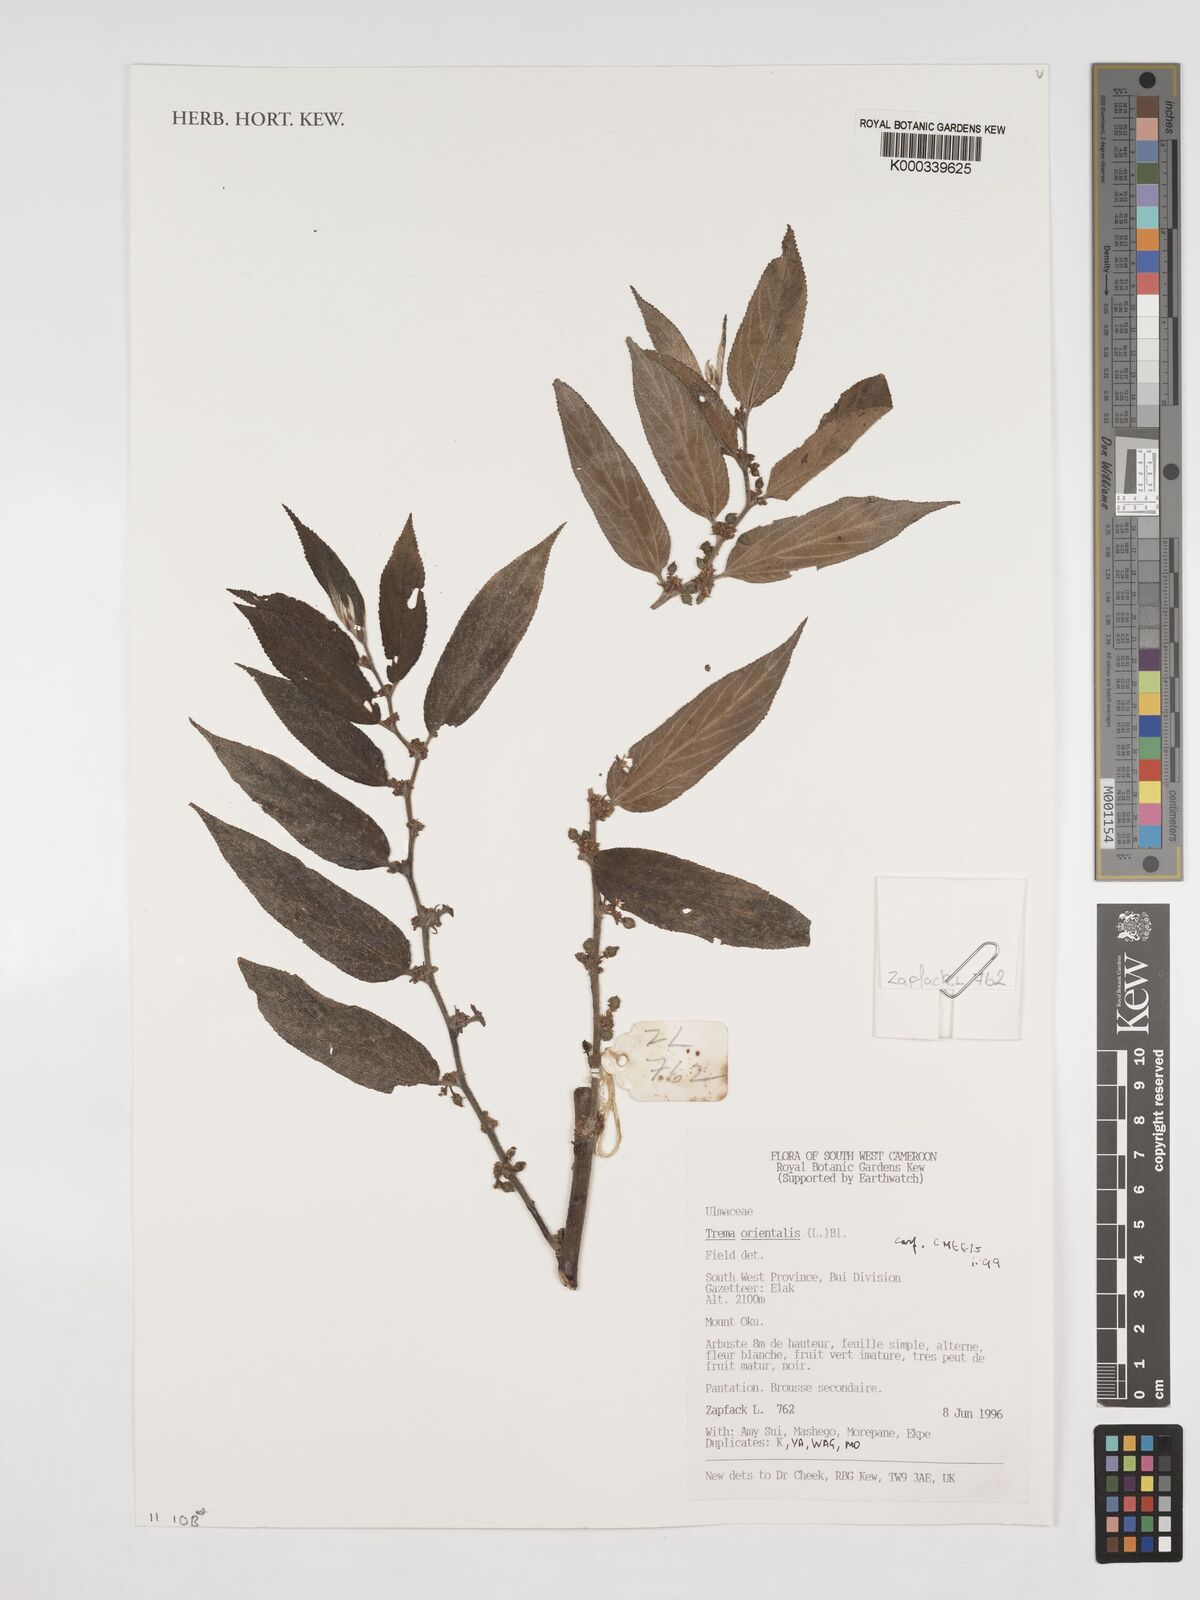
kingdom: Plantae
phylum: Tracheophyta
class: Magnoliopsida
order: Rosales
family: Cannabaceae
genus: Trema
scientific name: Trema
